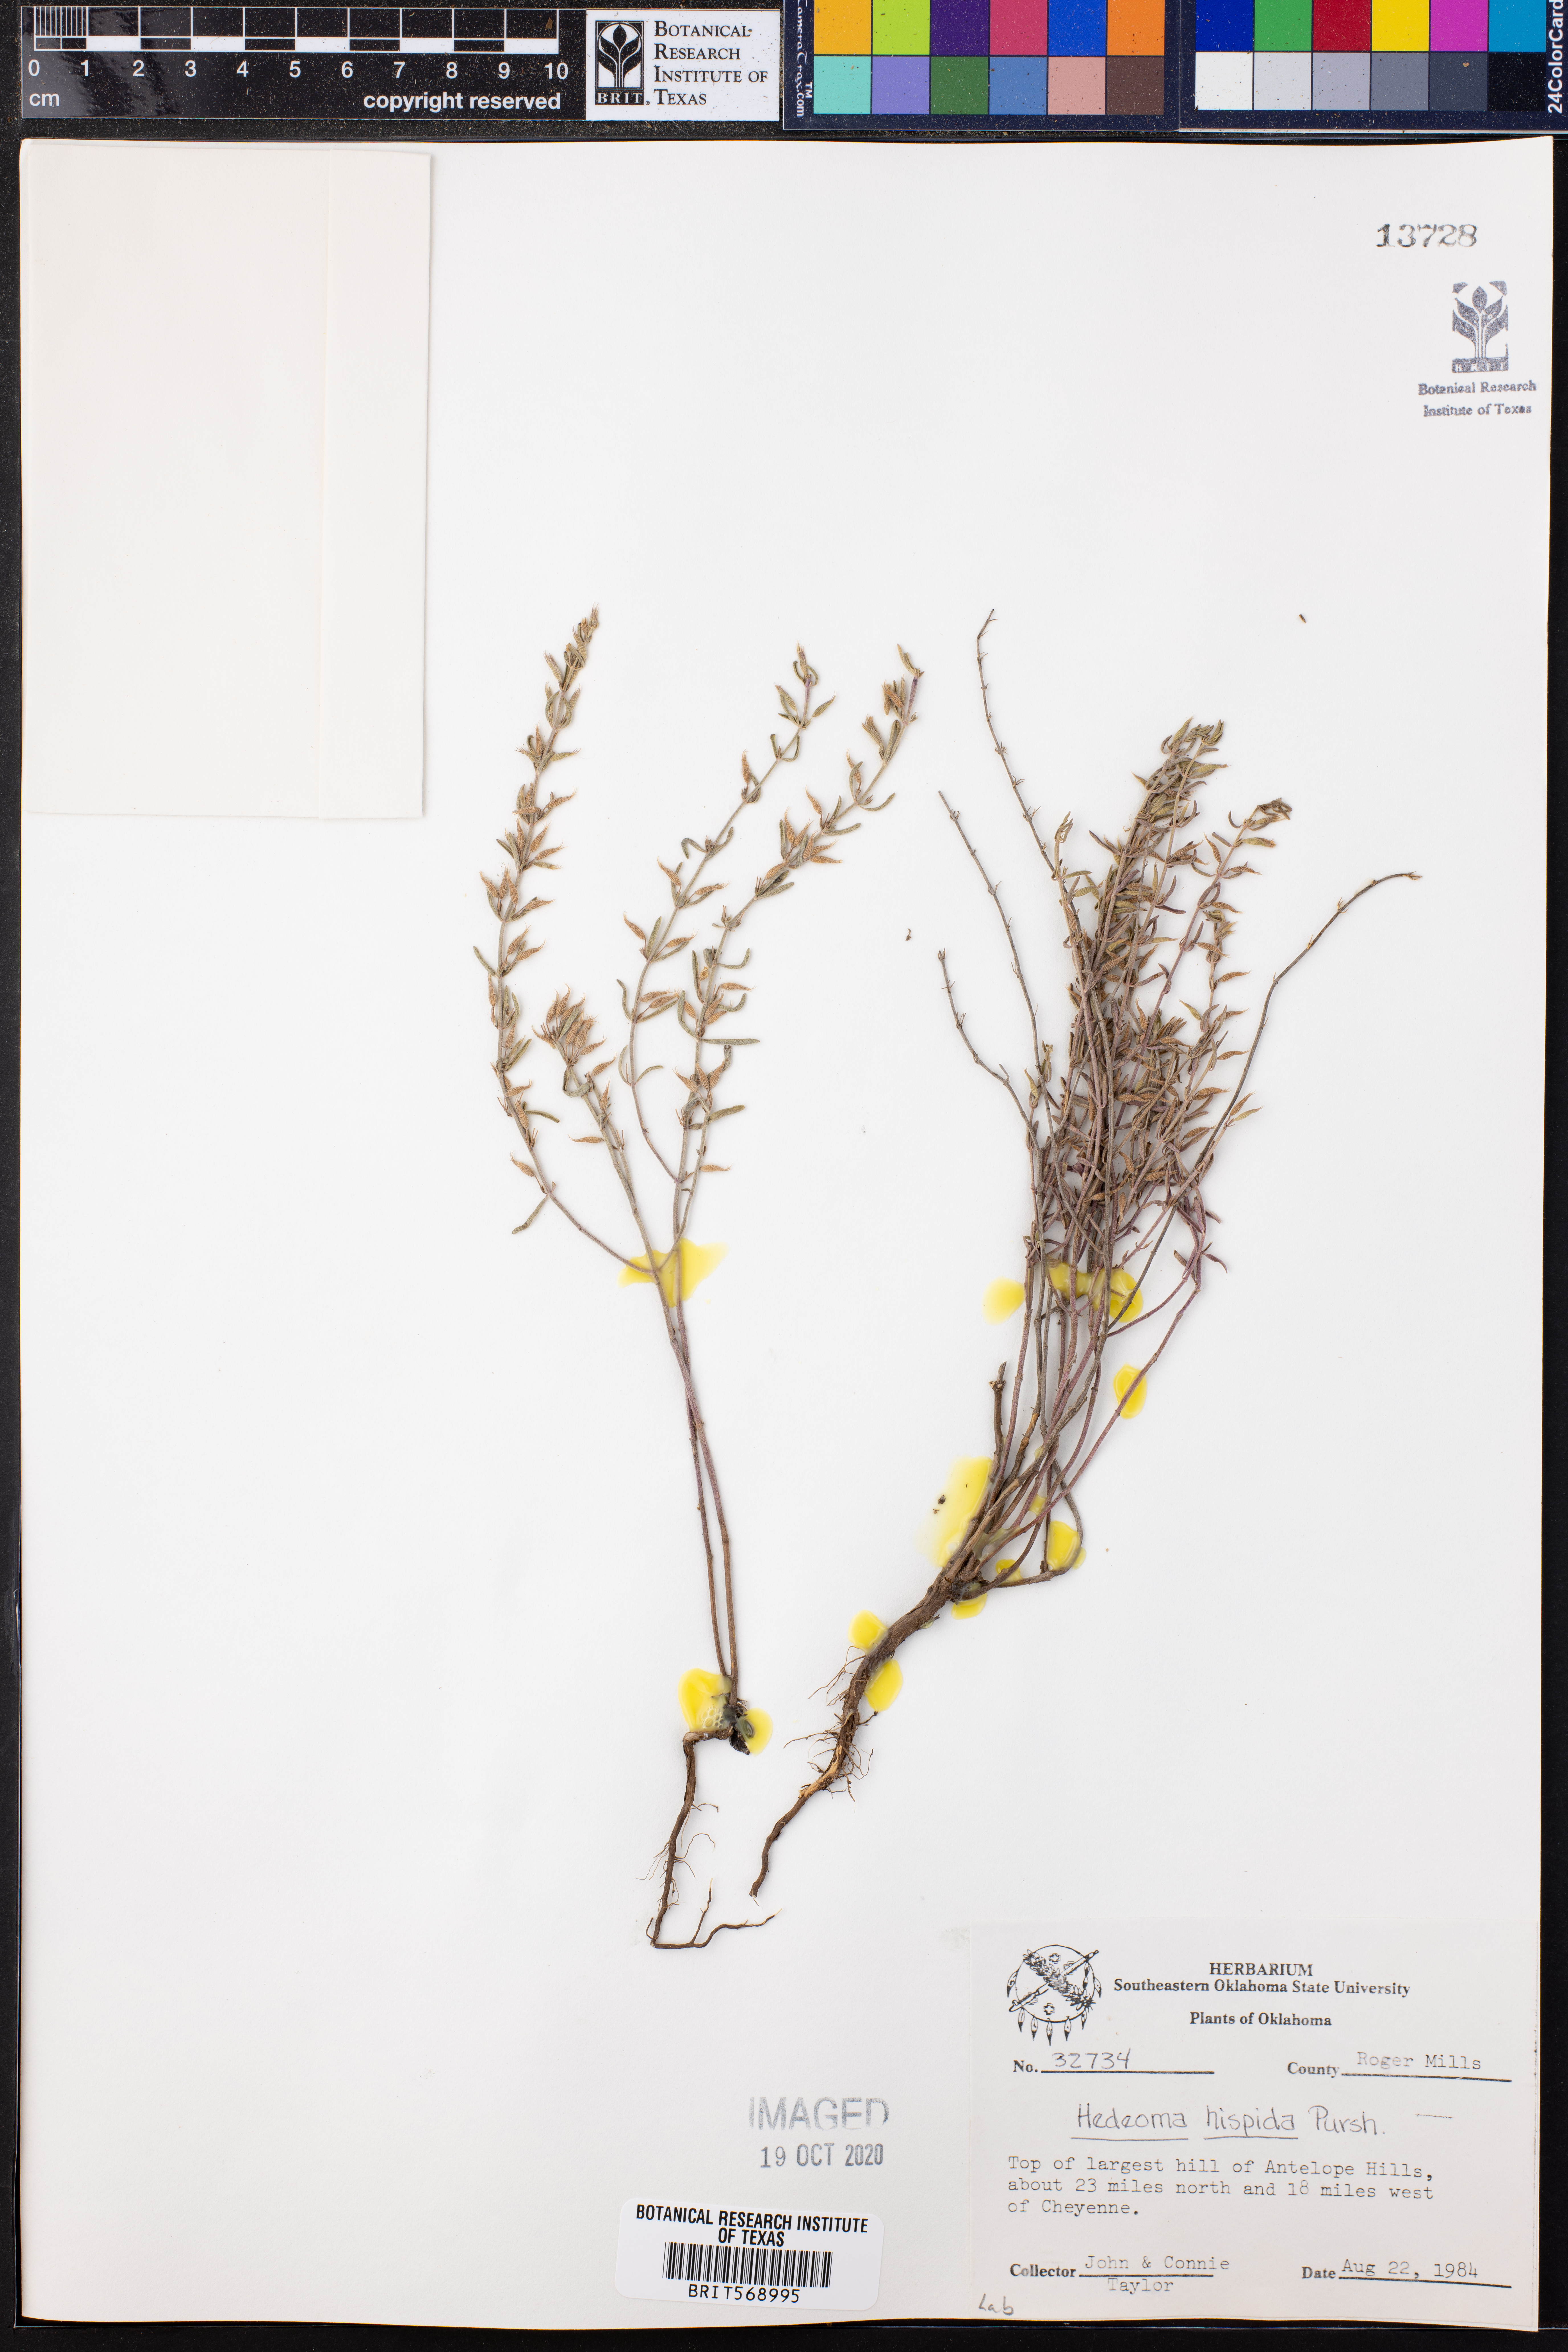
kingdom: Plantae
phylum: Tracheophyta
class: Magnoliopsida
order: Lamiales
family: Lamiaceae
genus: Hedeoma
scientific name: Hedeoma hispida
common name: Mock pennyroyal
